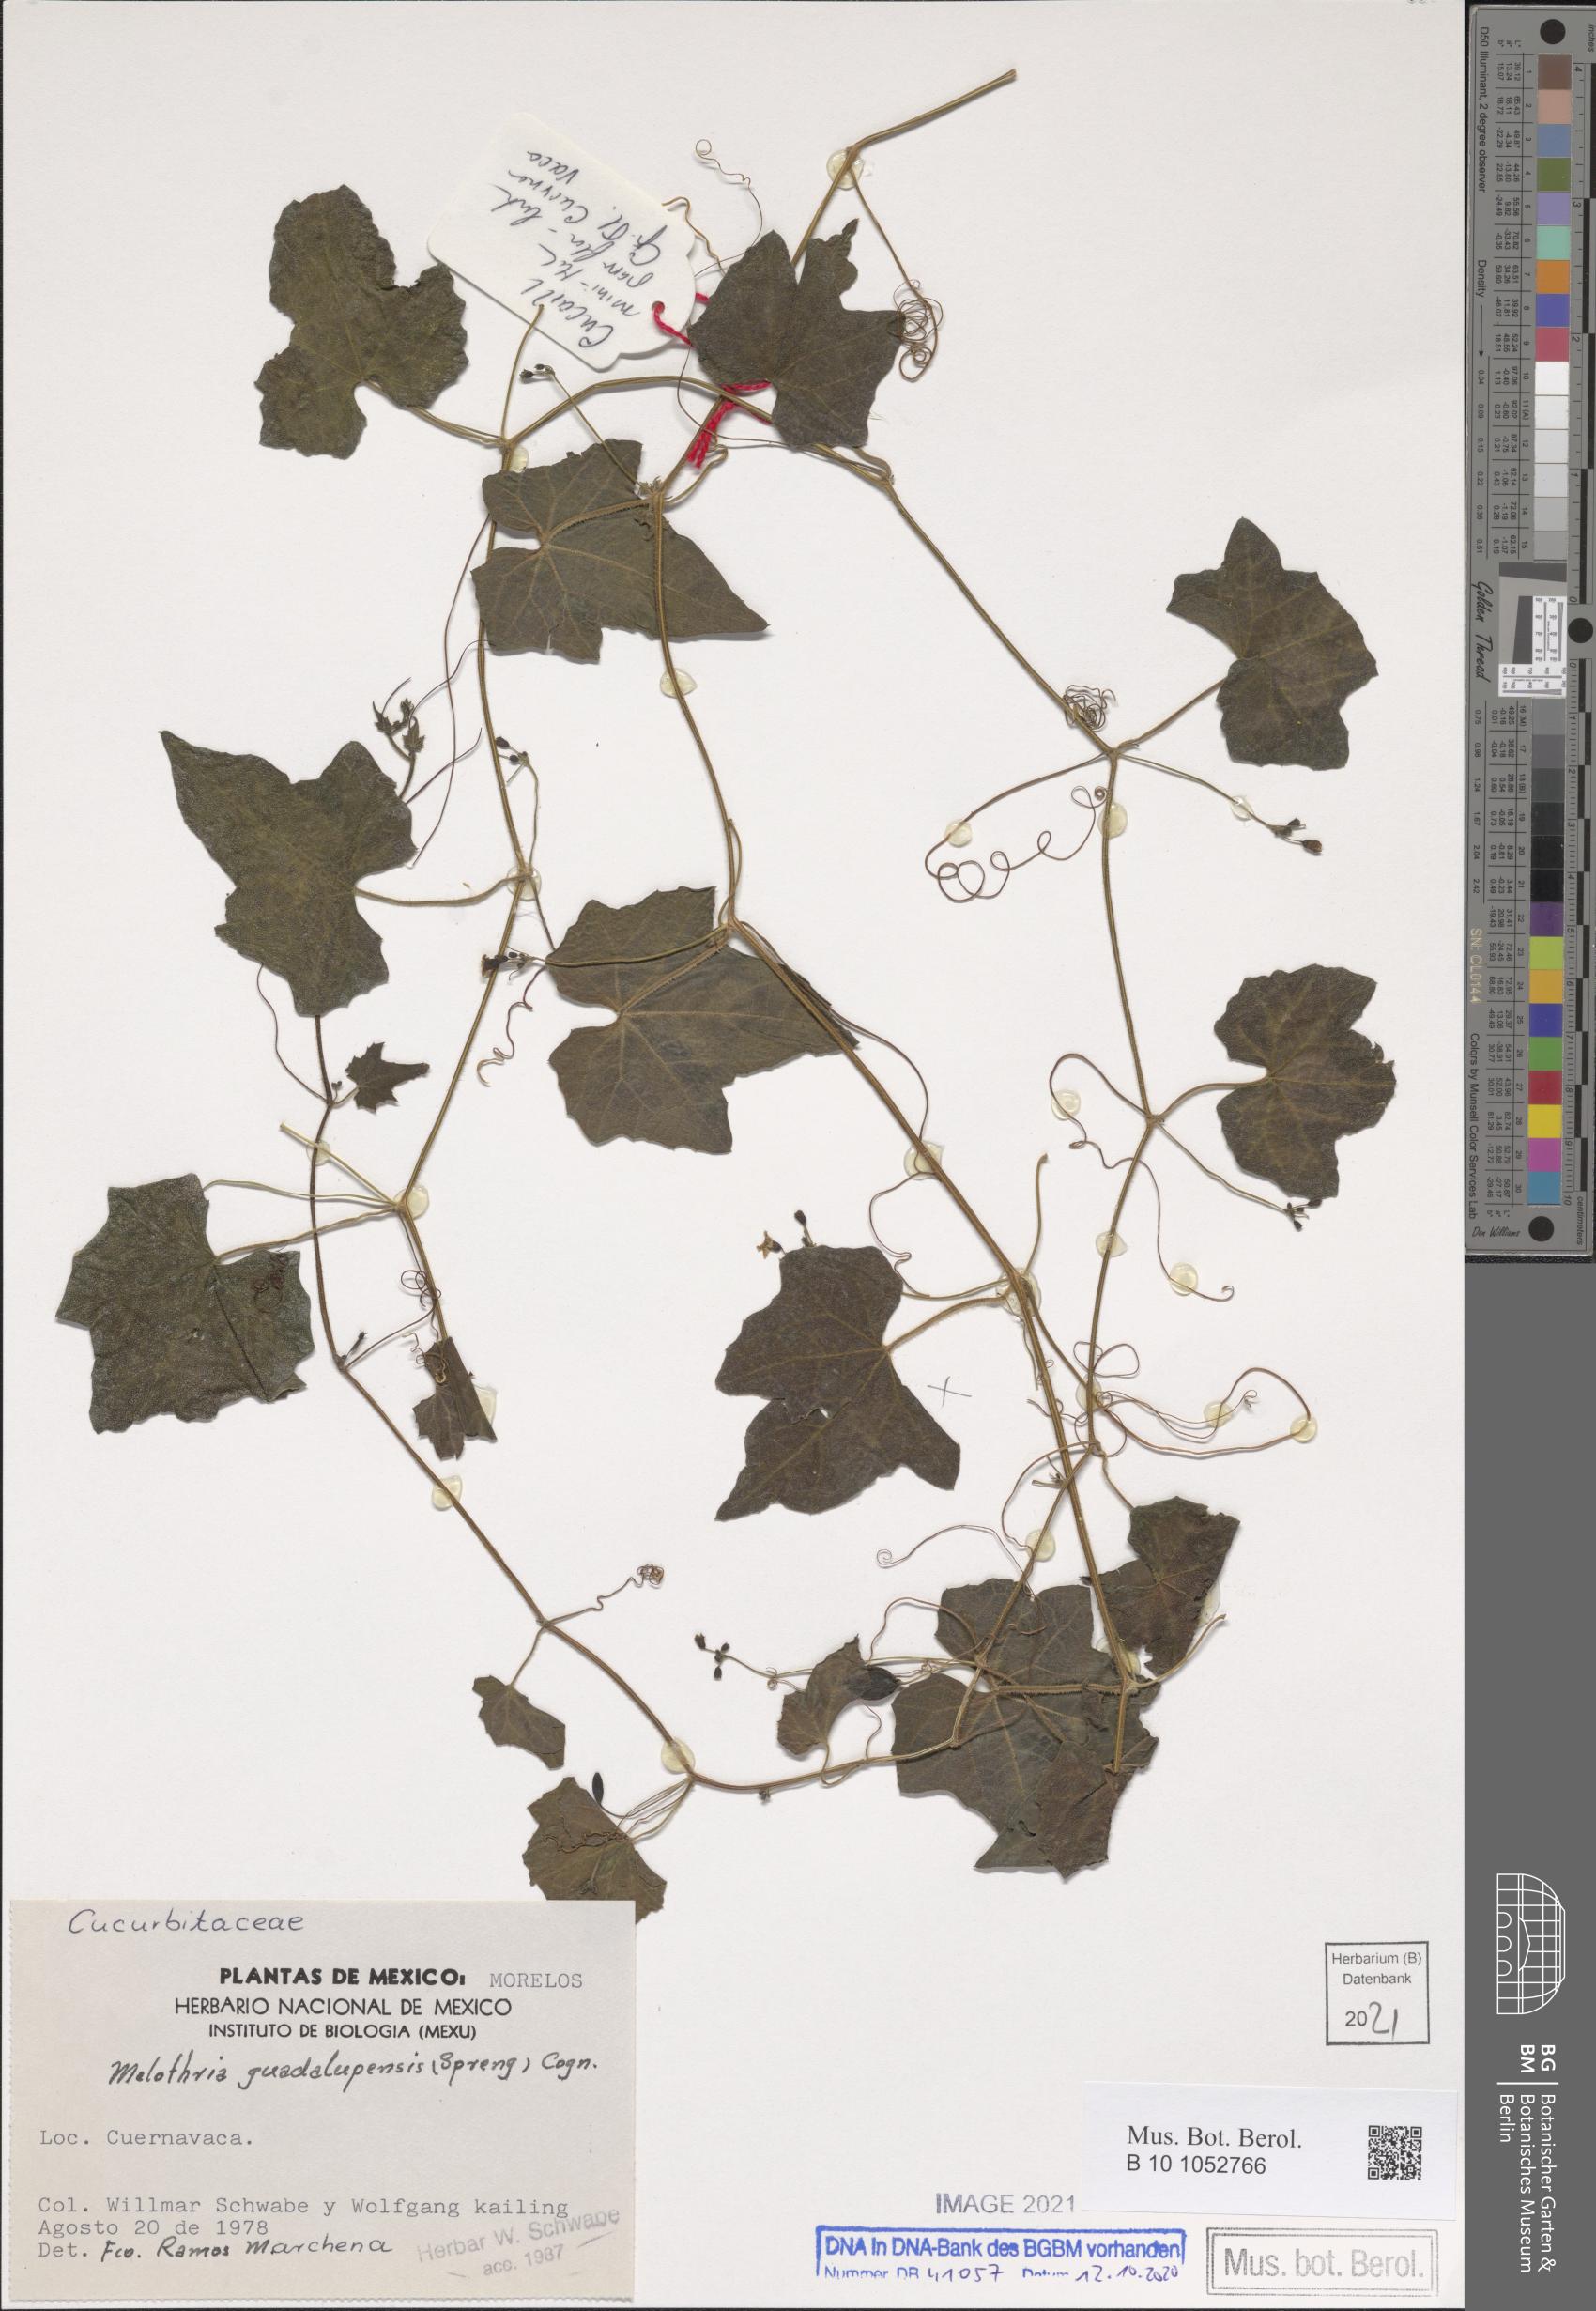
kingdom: Plantae
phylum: Tracheophyta
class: Magnoliopsida
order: Cucurbitales
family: Cucurbitaceae
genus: Melothria
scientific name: Melothria pendula
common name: Creeping-cucumber
